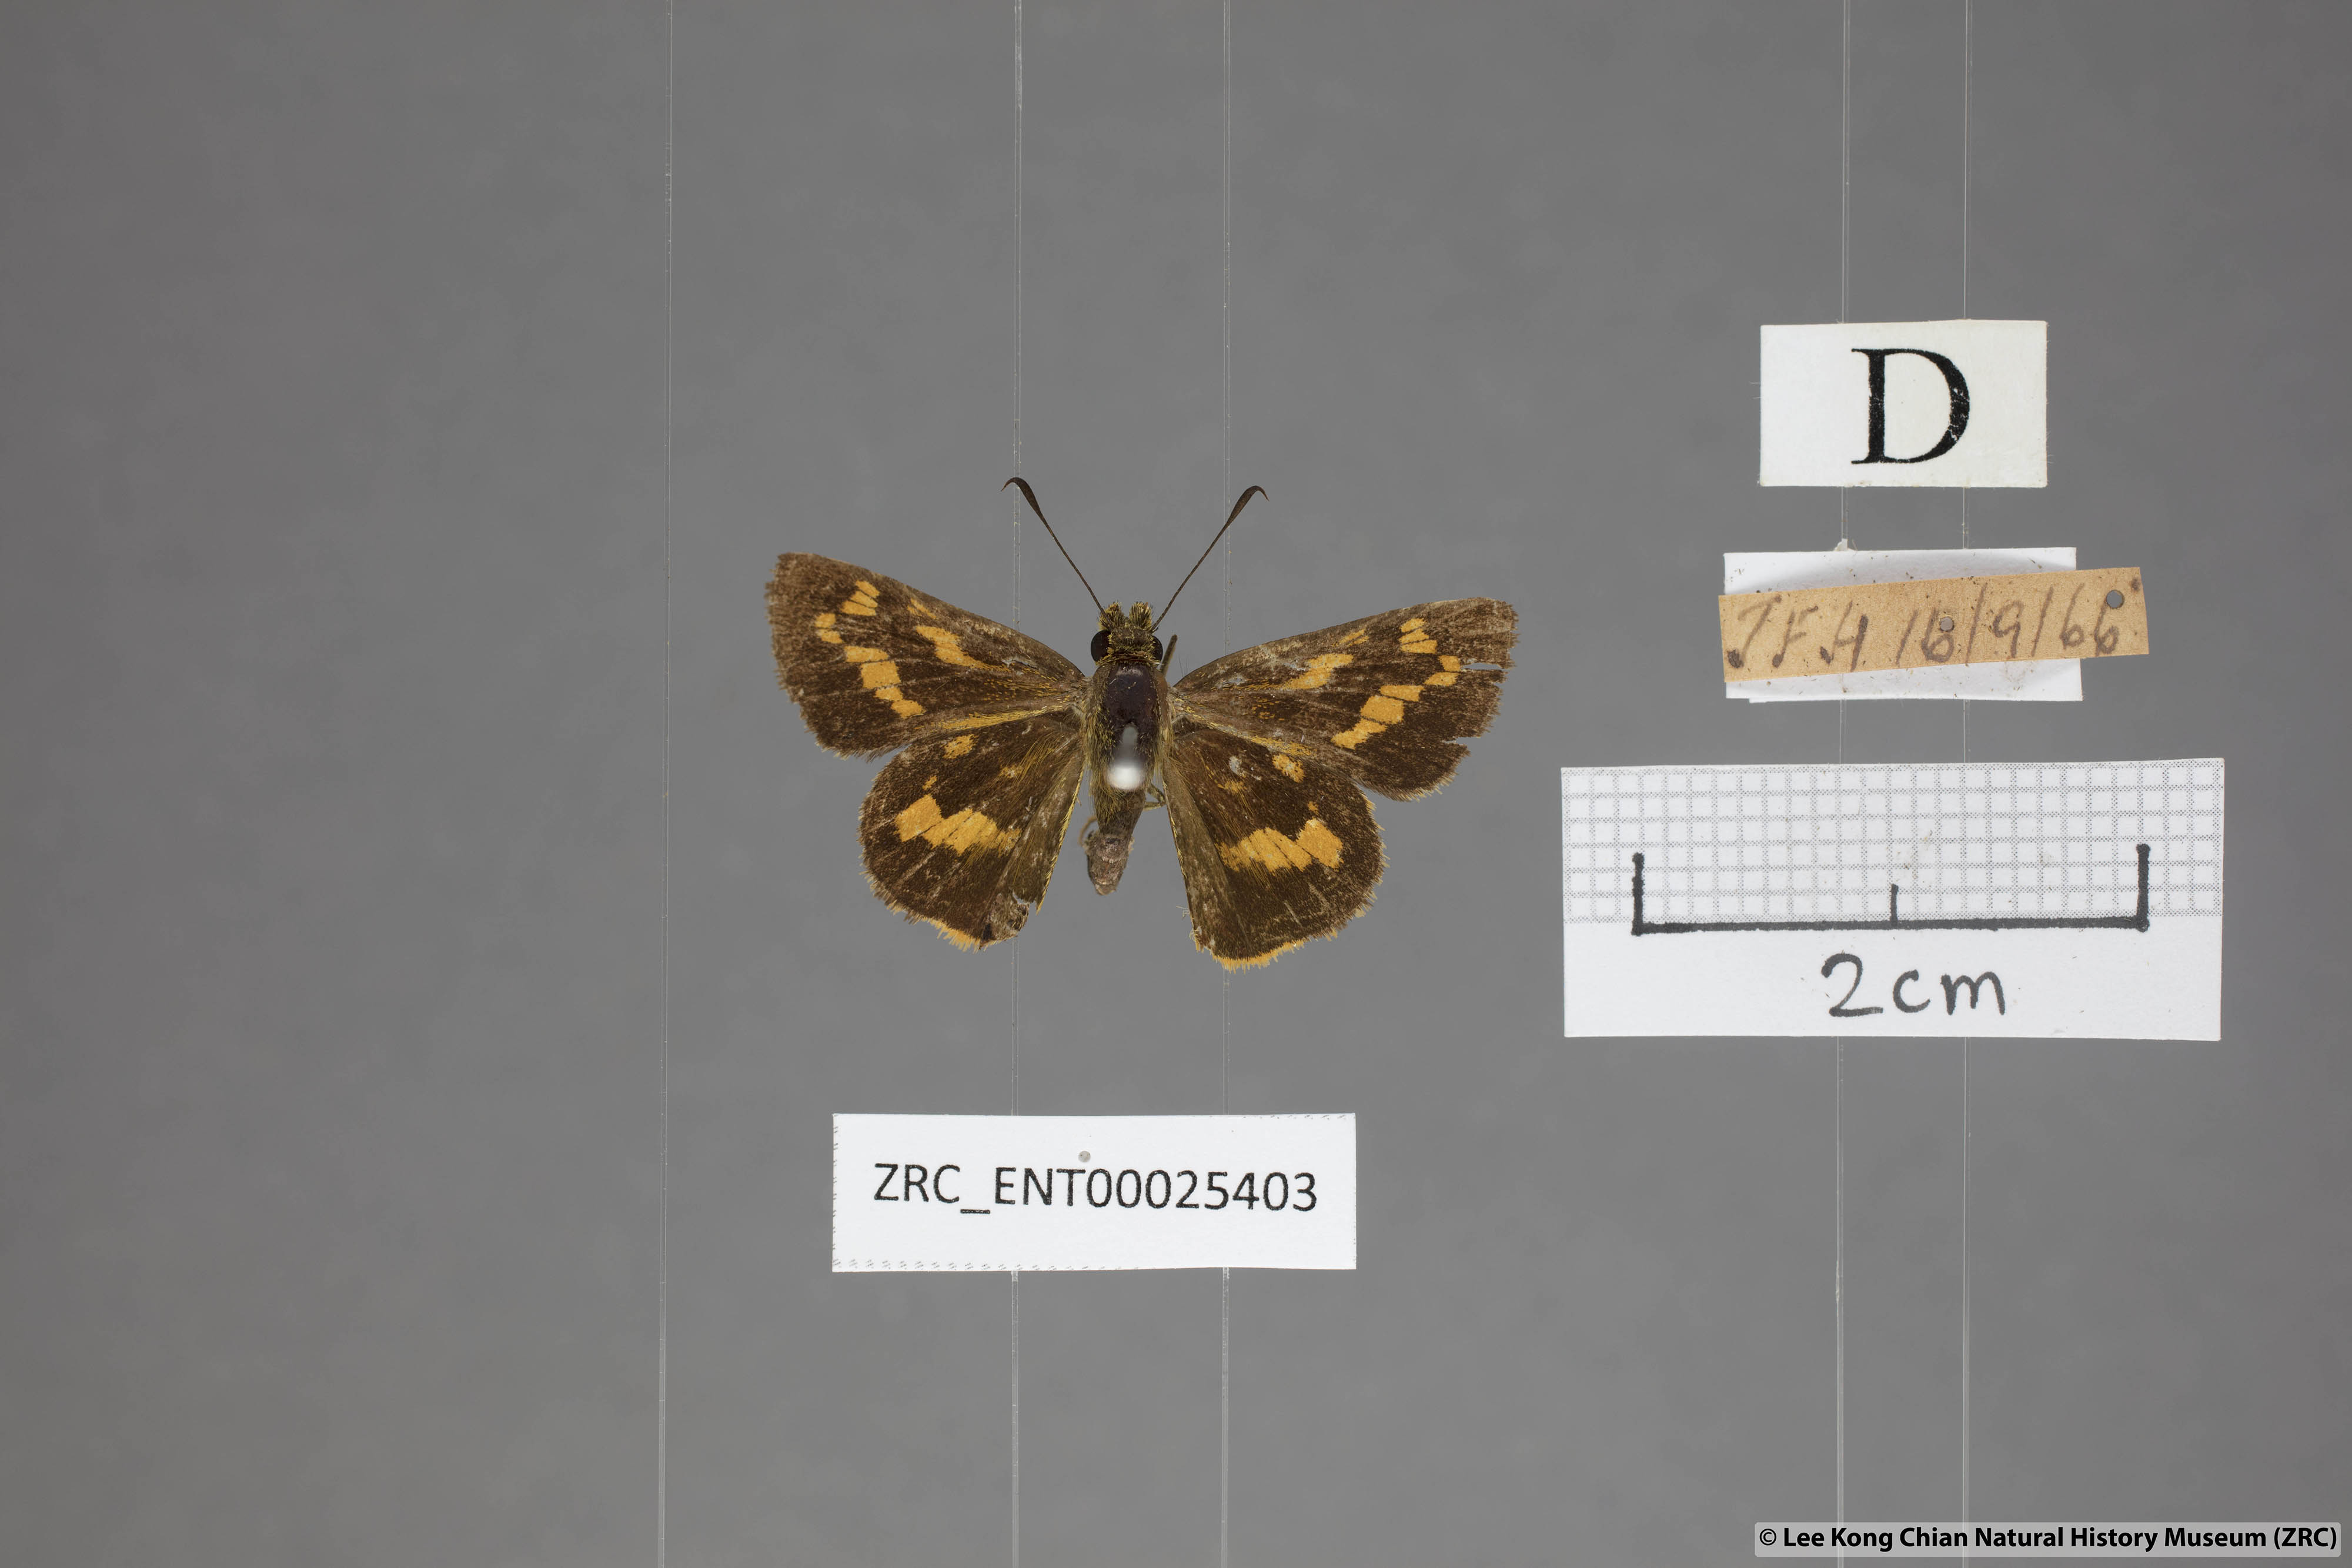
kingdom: Animalia
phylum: Arthropoda
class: Insecta
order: Lepidoptera
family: Hesperiidae
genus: Potanthus
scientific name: Potanthus lydia
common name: Lydia dart
